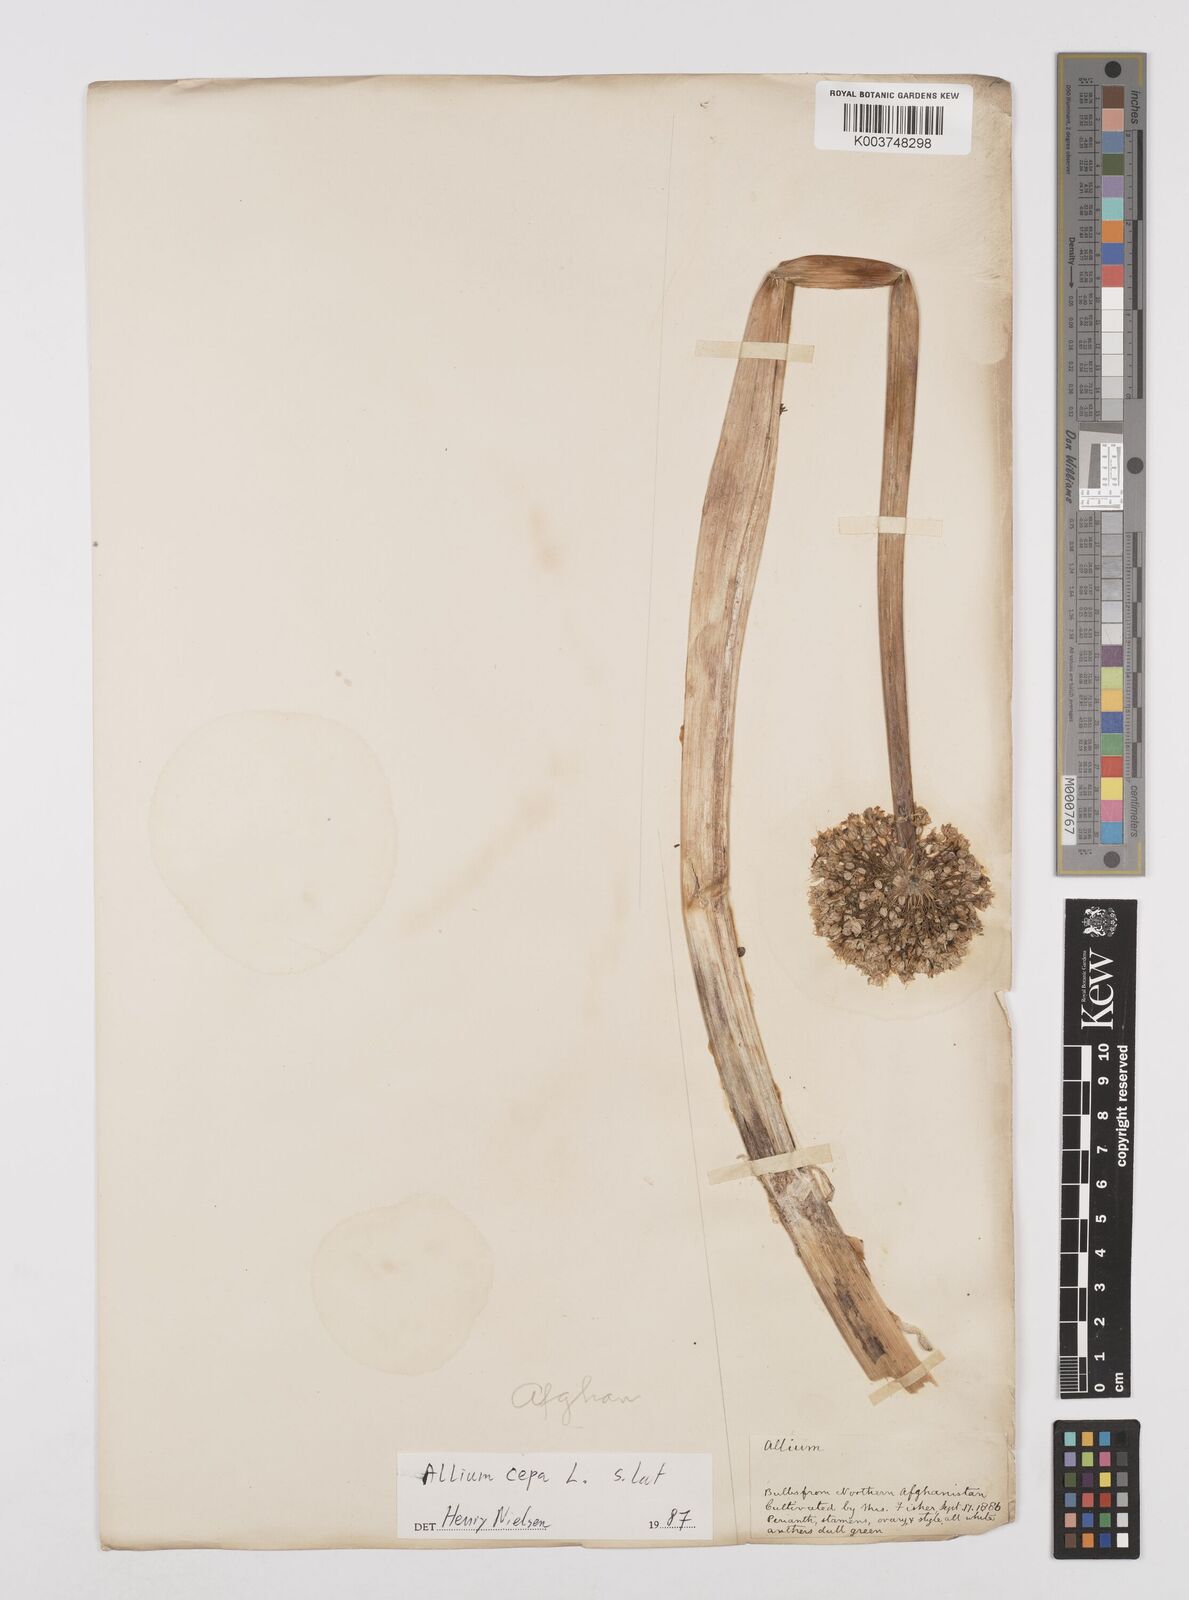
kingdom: Plantae
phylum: Tracheophyta
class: Liliopsida
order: Asparagales
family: Amaryllidaceae
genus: Allium
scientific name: Allium cepa
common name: Onion
